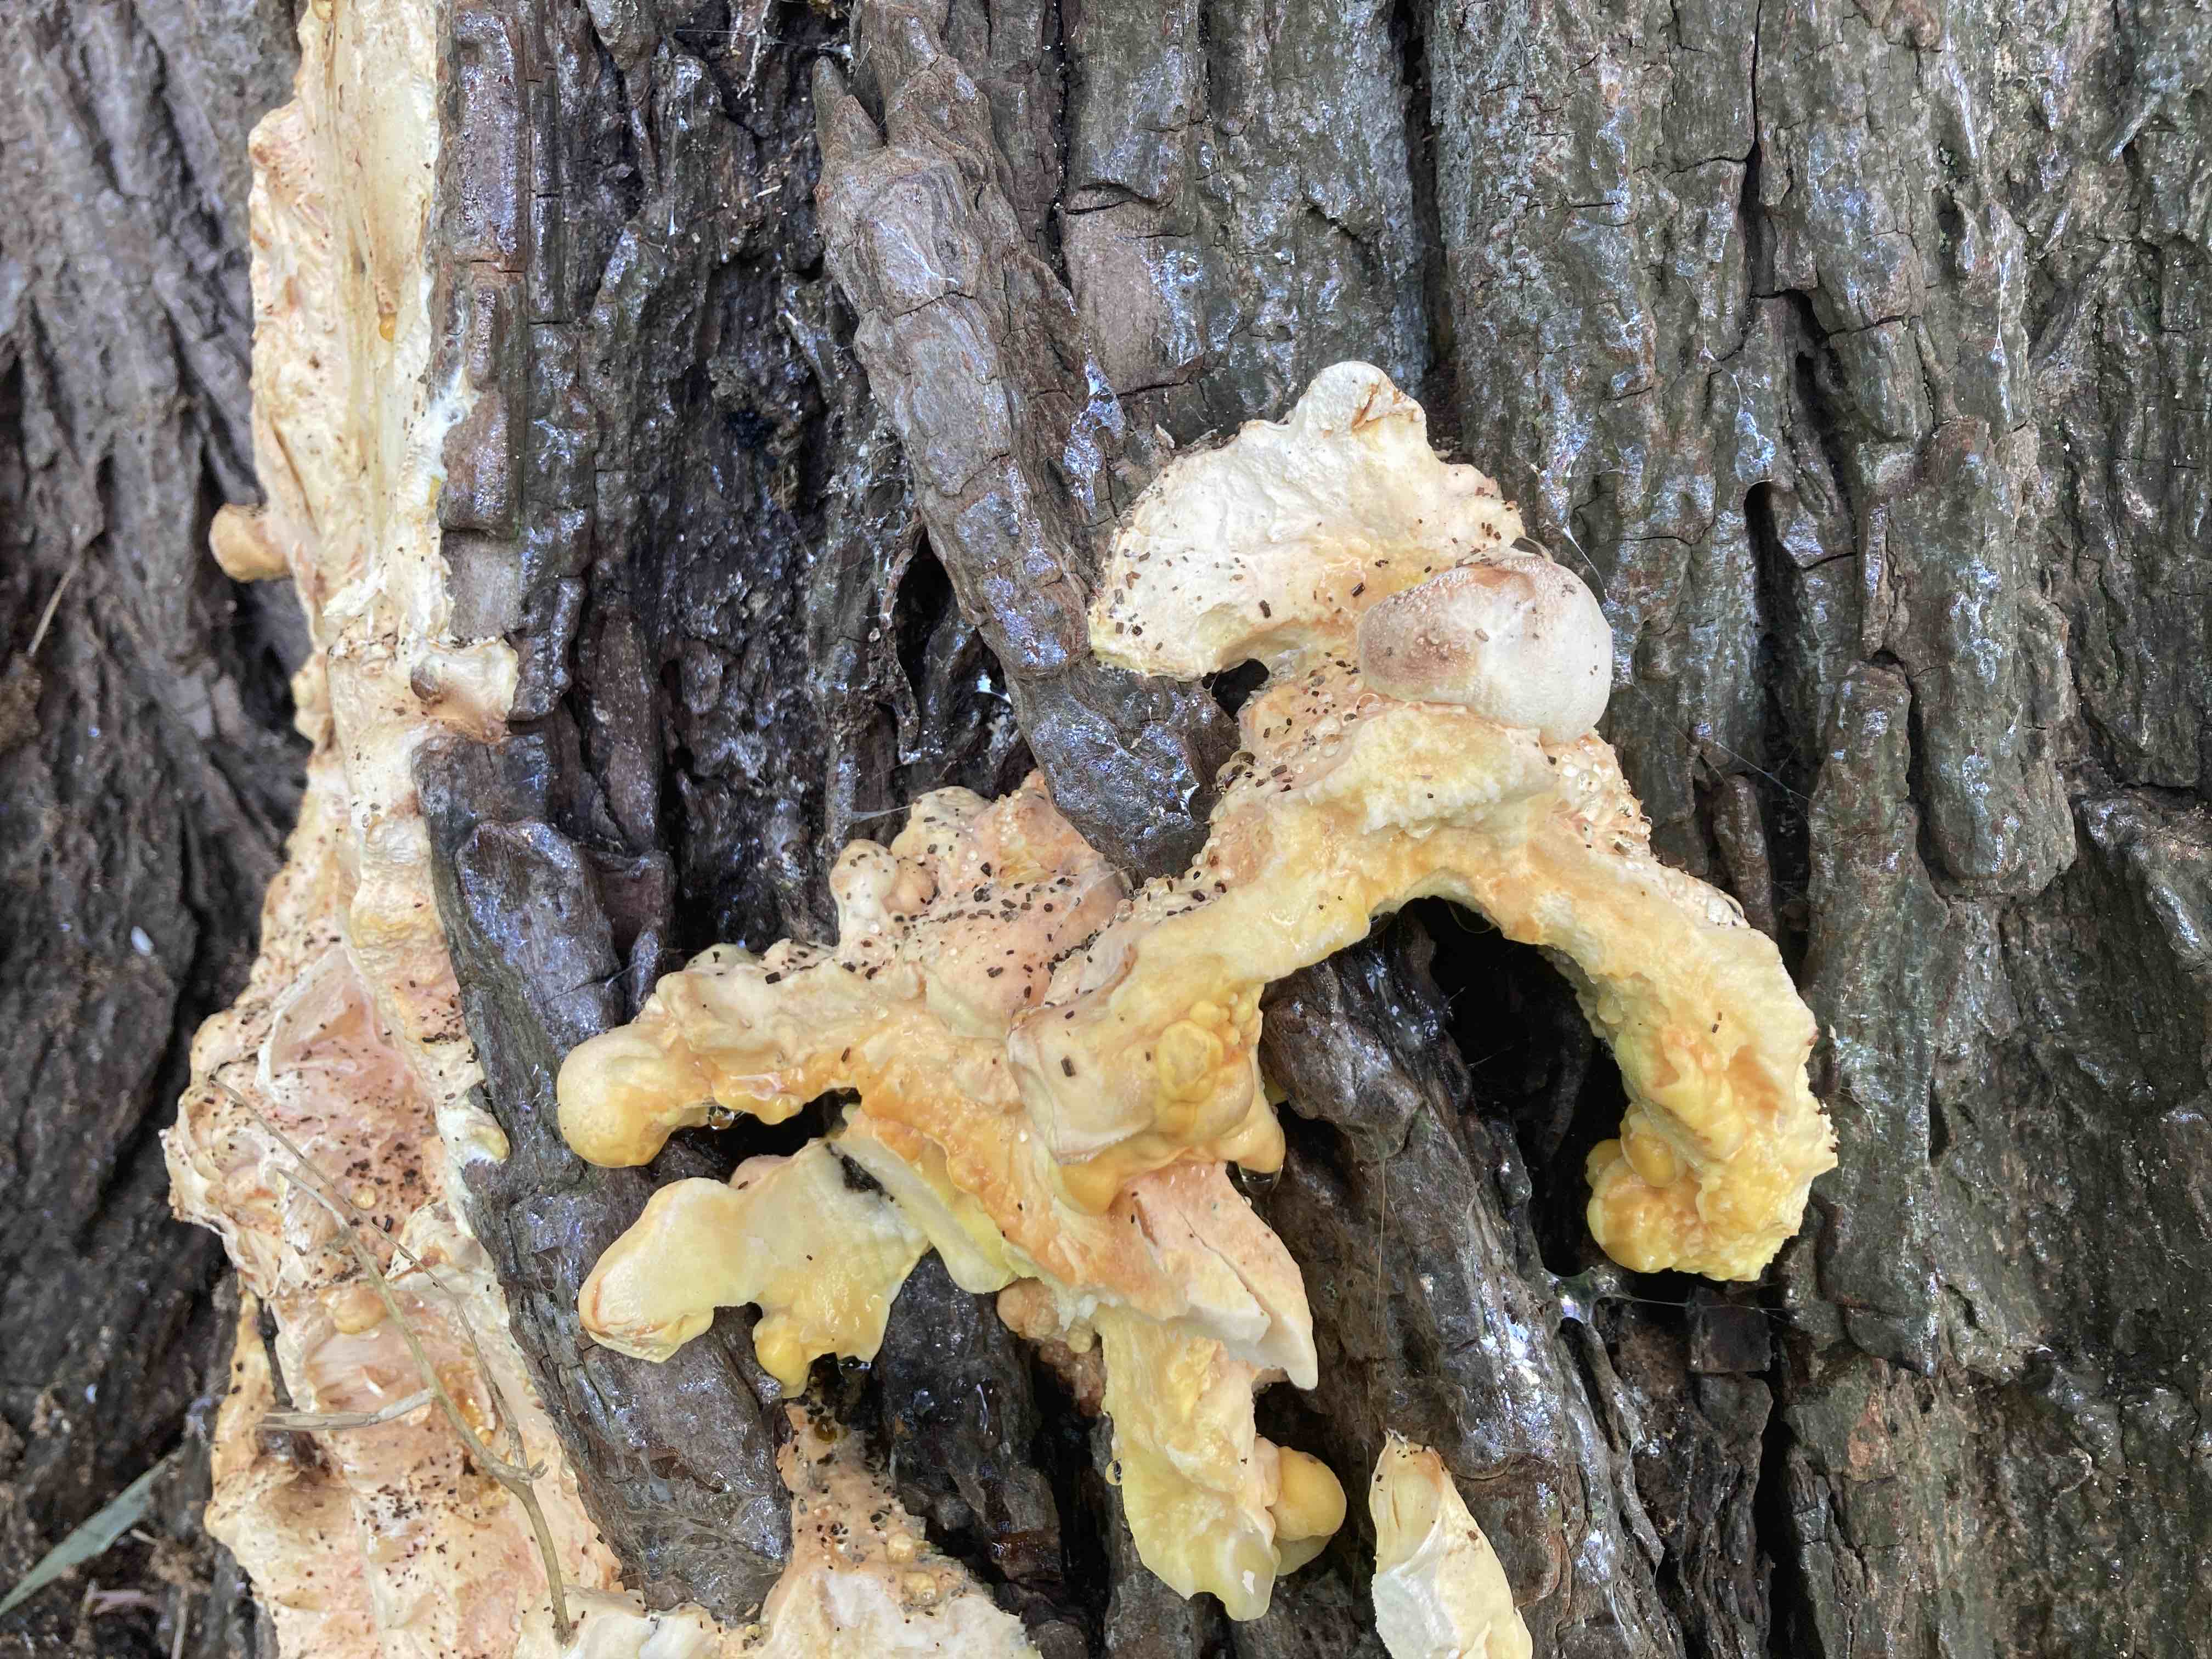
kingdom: Fungi
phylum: Basidiomycota
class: Agaricomycetes
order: Polyporales
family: Laetiporaceae
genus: Laetiporus
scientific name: Laetiporus sulphureus
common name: svovlporesvamp
